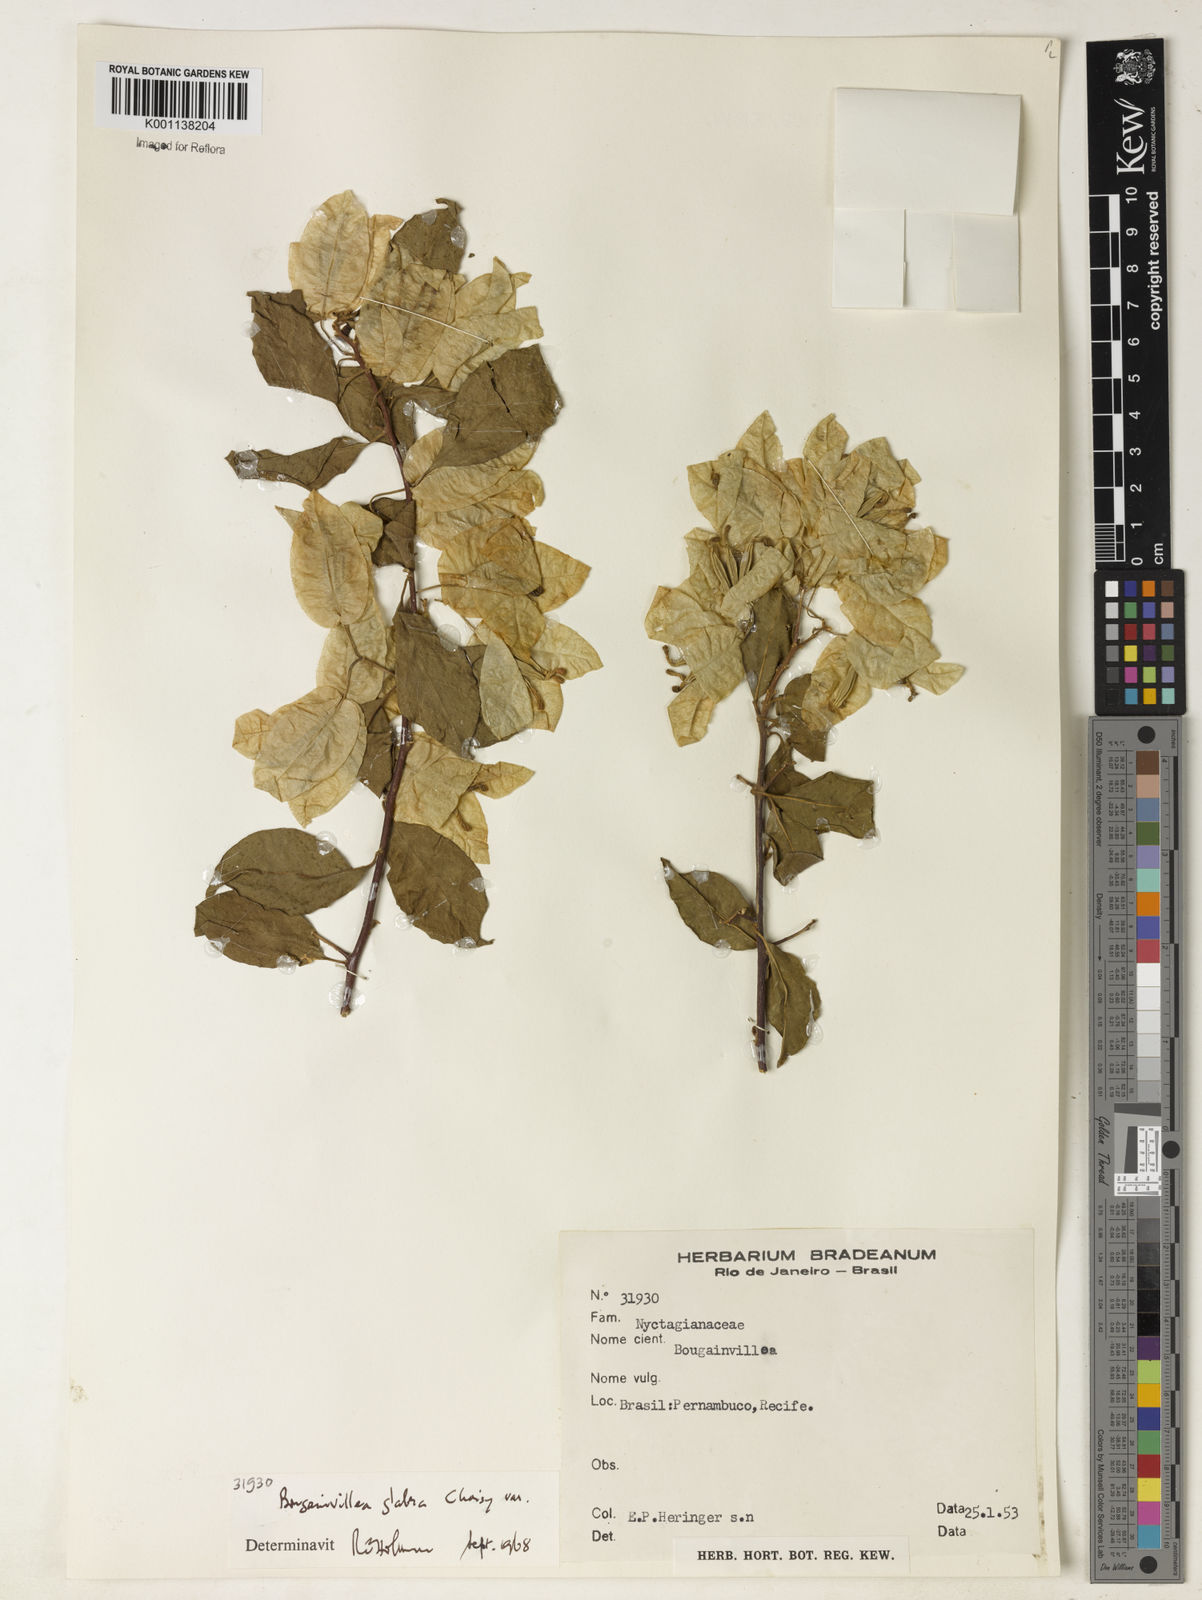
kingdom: Plantae
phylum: Tracheophyta
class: Magnoliopsida
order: Caryophyllales
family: Nyctaginaceae
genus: Bougainvillea
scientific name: Bougainvillea glabra
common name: Paperflower
